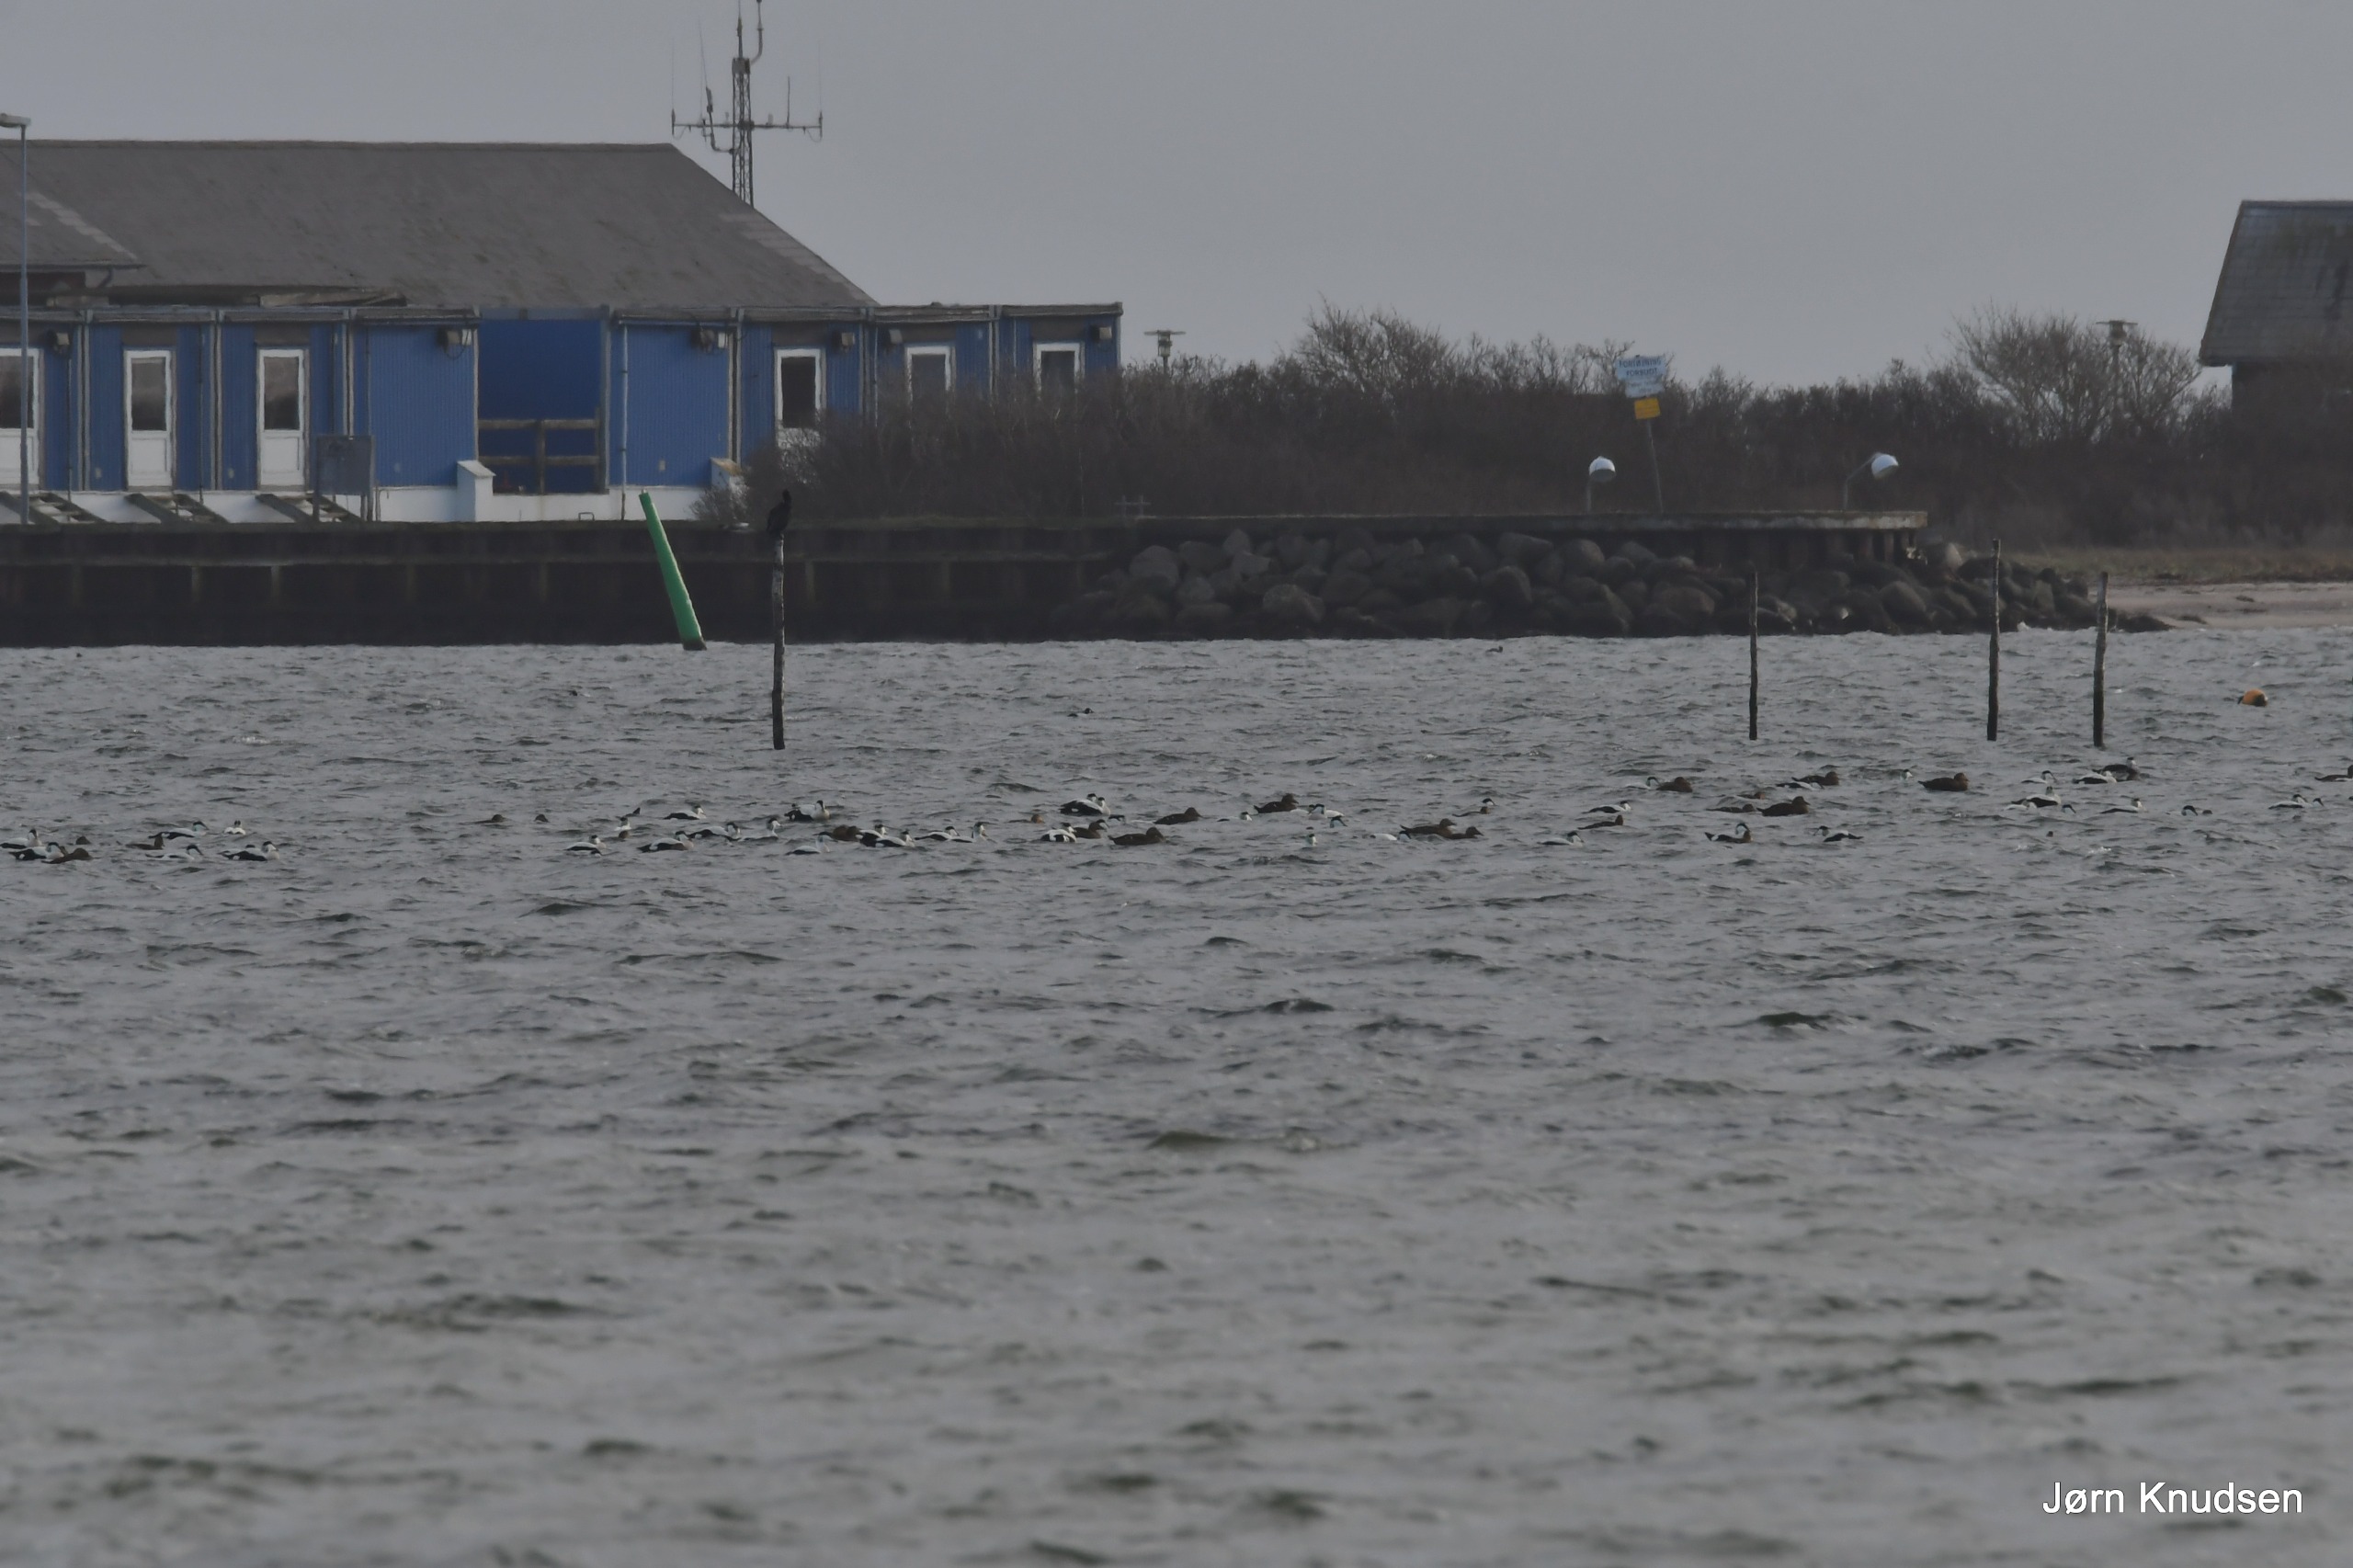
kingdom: Animalia
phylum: Chordata
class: Aves
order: Anseriformes
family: Anatidae
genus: Somateria
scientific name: Somateria mollissima
